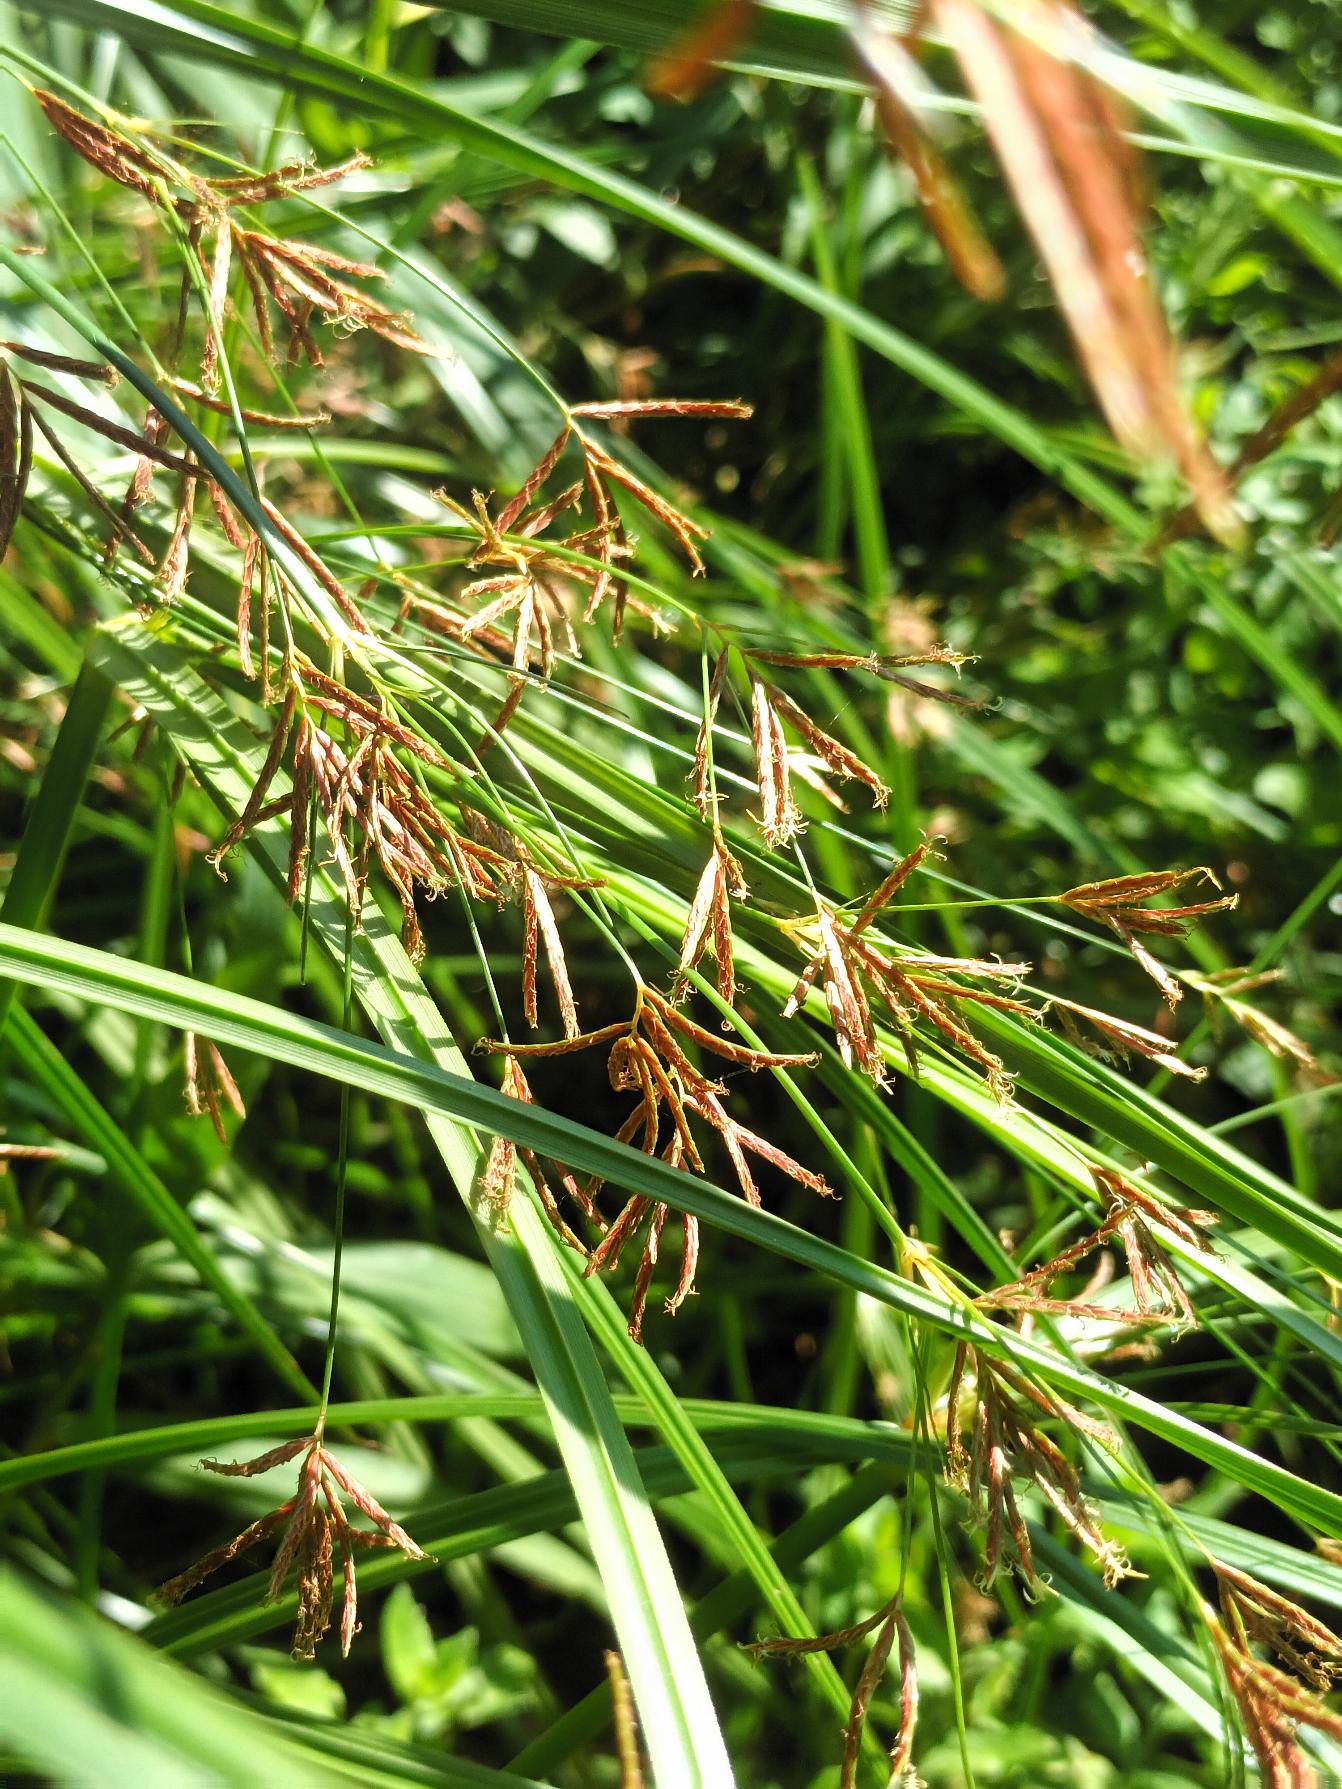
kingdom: Plantae
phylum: Tracheophyta
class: Liliopsida
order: Poales
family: Cyperaceae
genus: Cyperus
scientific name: Cyperus longus
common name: Smalbladet fladaks
